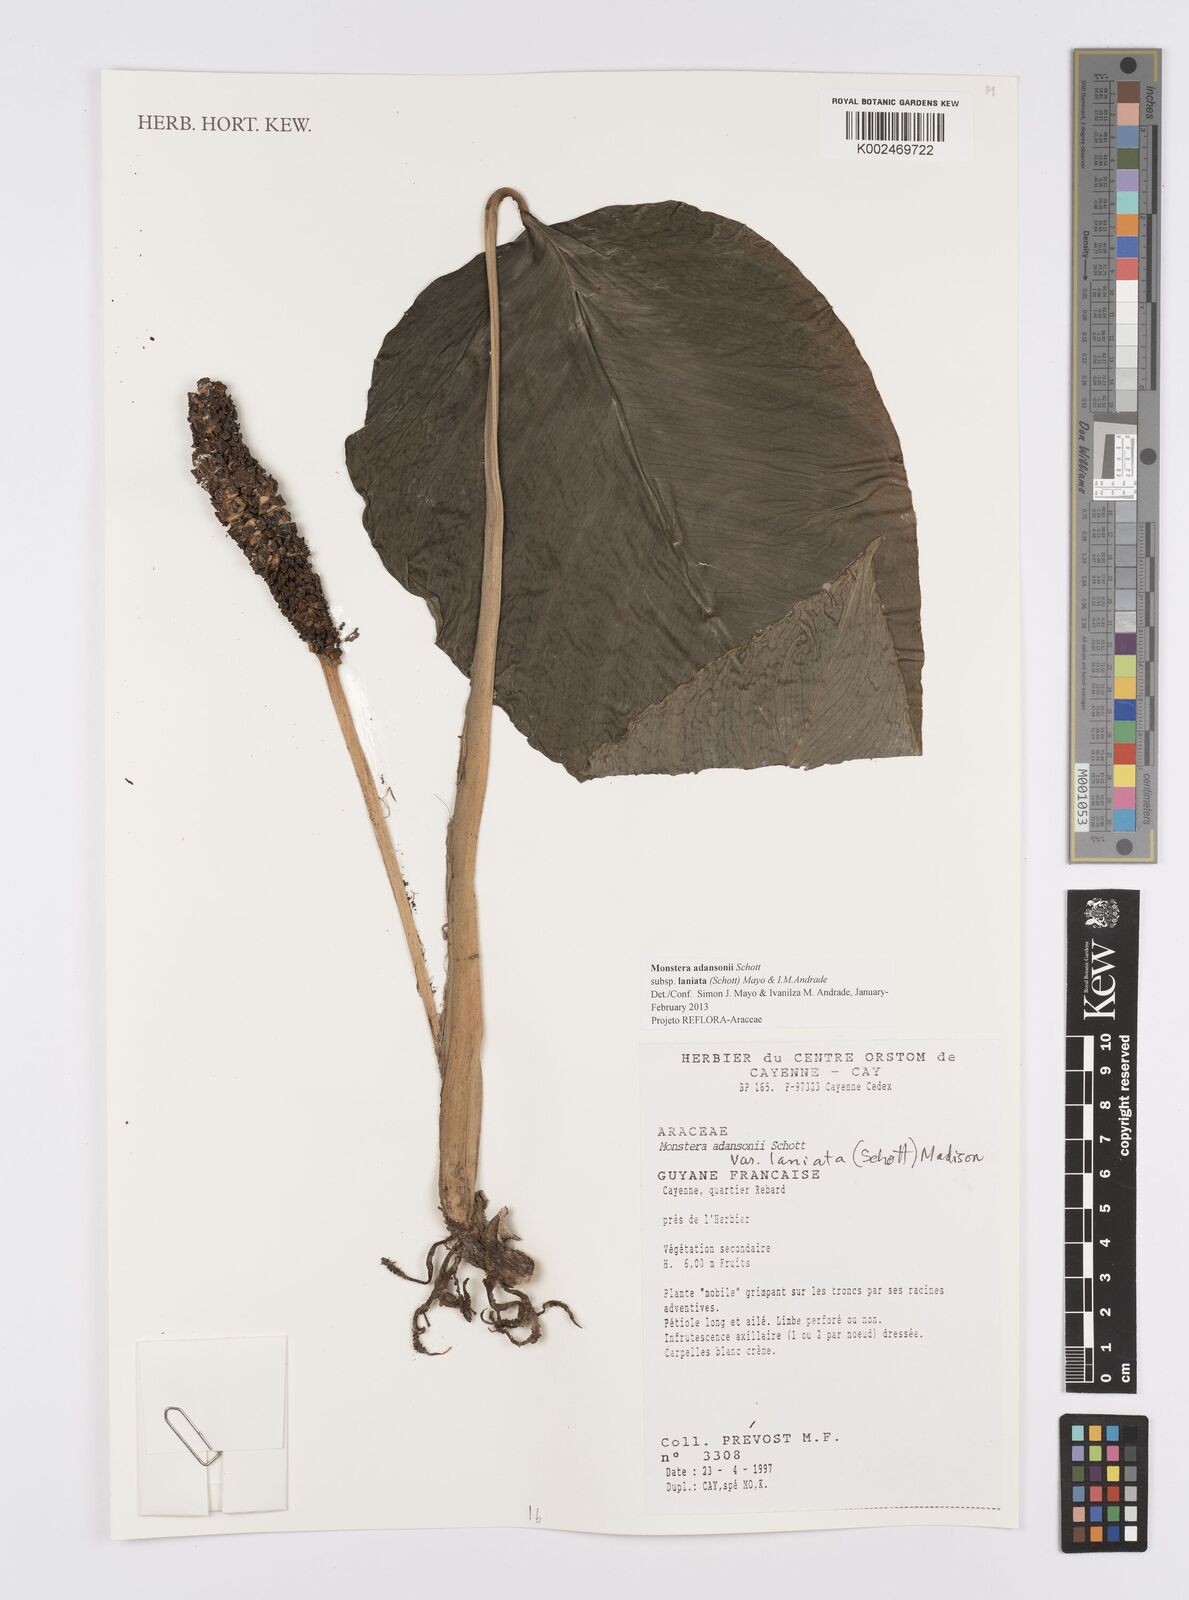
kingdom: Plantae
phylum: Tracheophyta
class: Liliopsida
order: Alismatales
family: Araceae
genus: Monstera
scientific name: Monstera adansonii
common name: Tarovine
